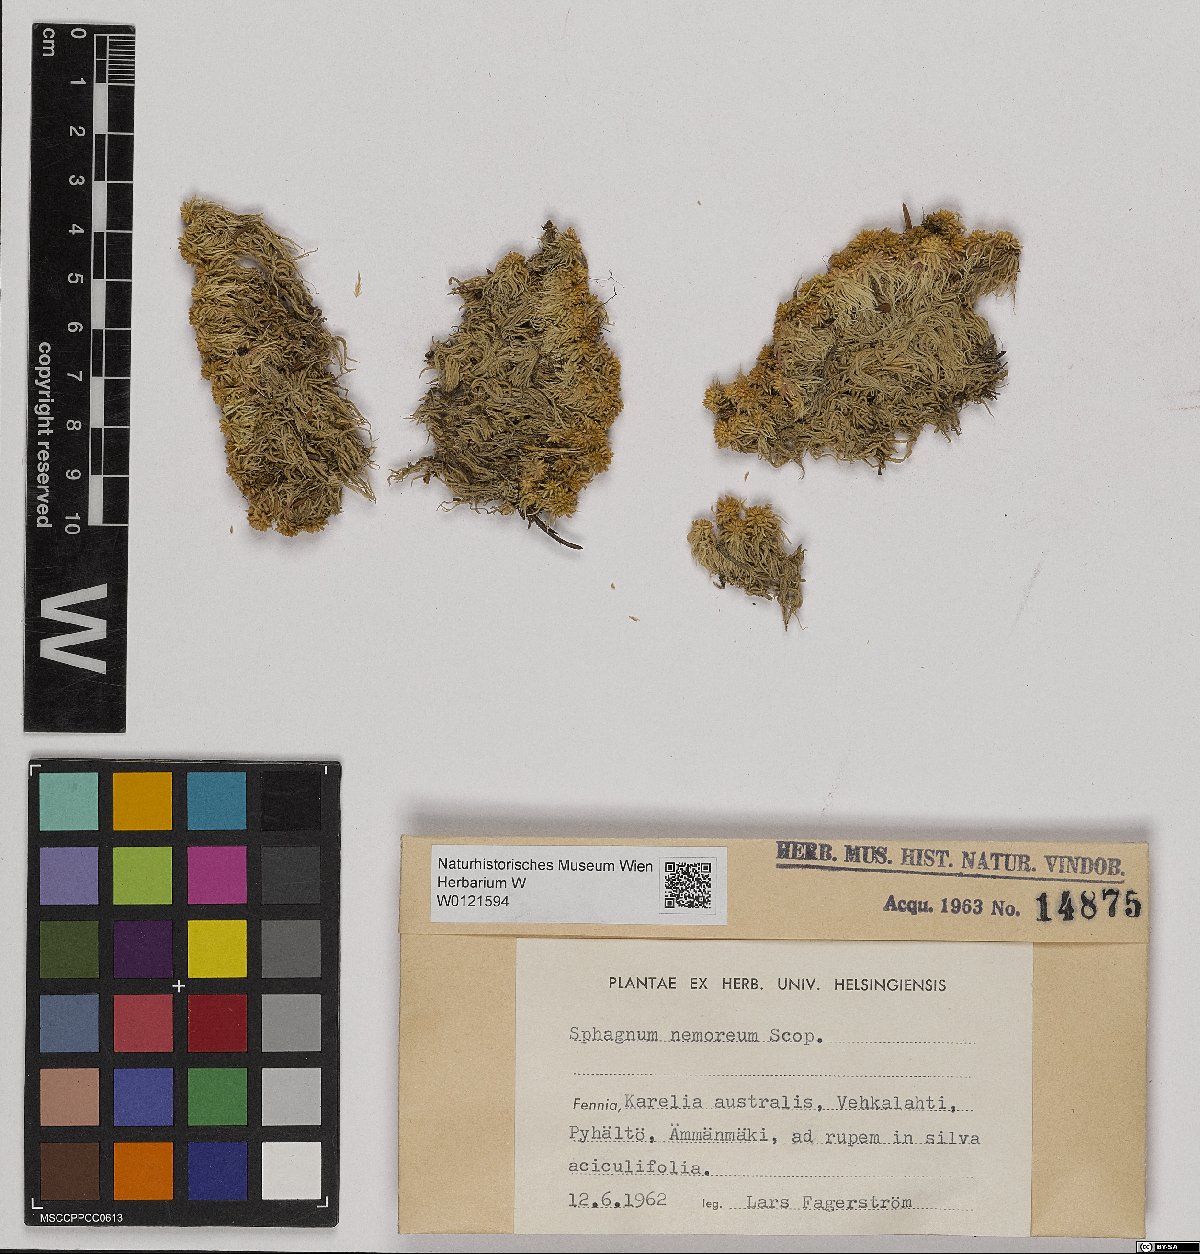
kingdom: Plantae
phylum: Bryophyta
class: Sphagnopsida
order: Sphagnales
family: Sphagnaceae
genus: Sphagnum
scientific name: Sphagnum capillifolium
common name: Small red peat moss
